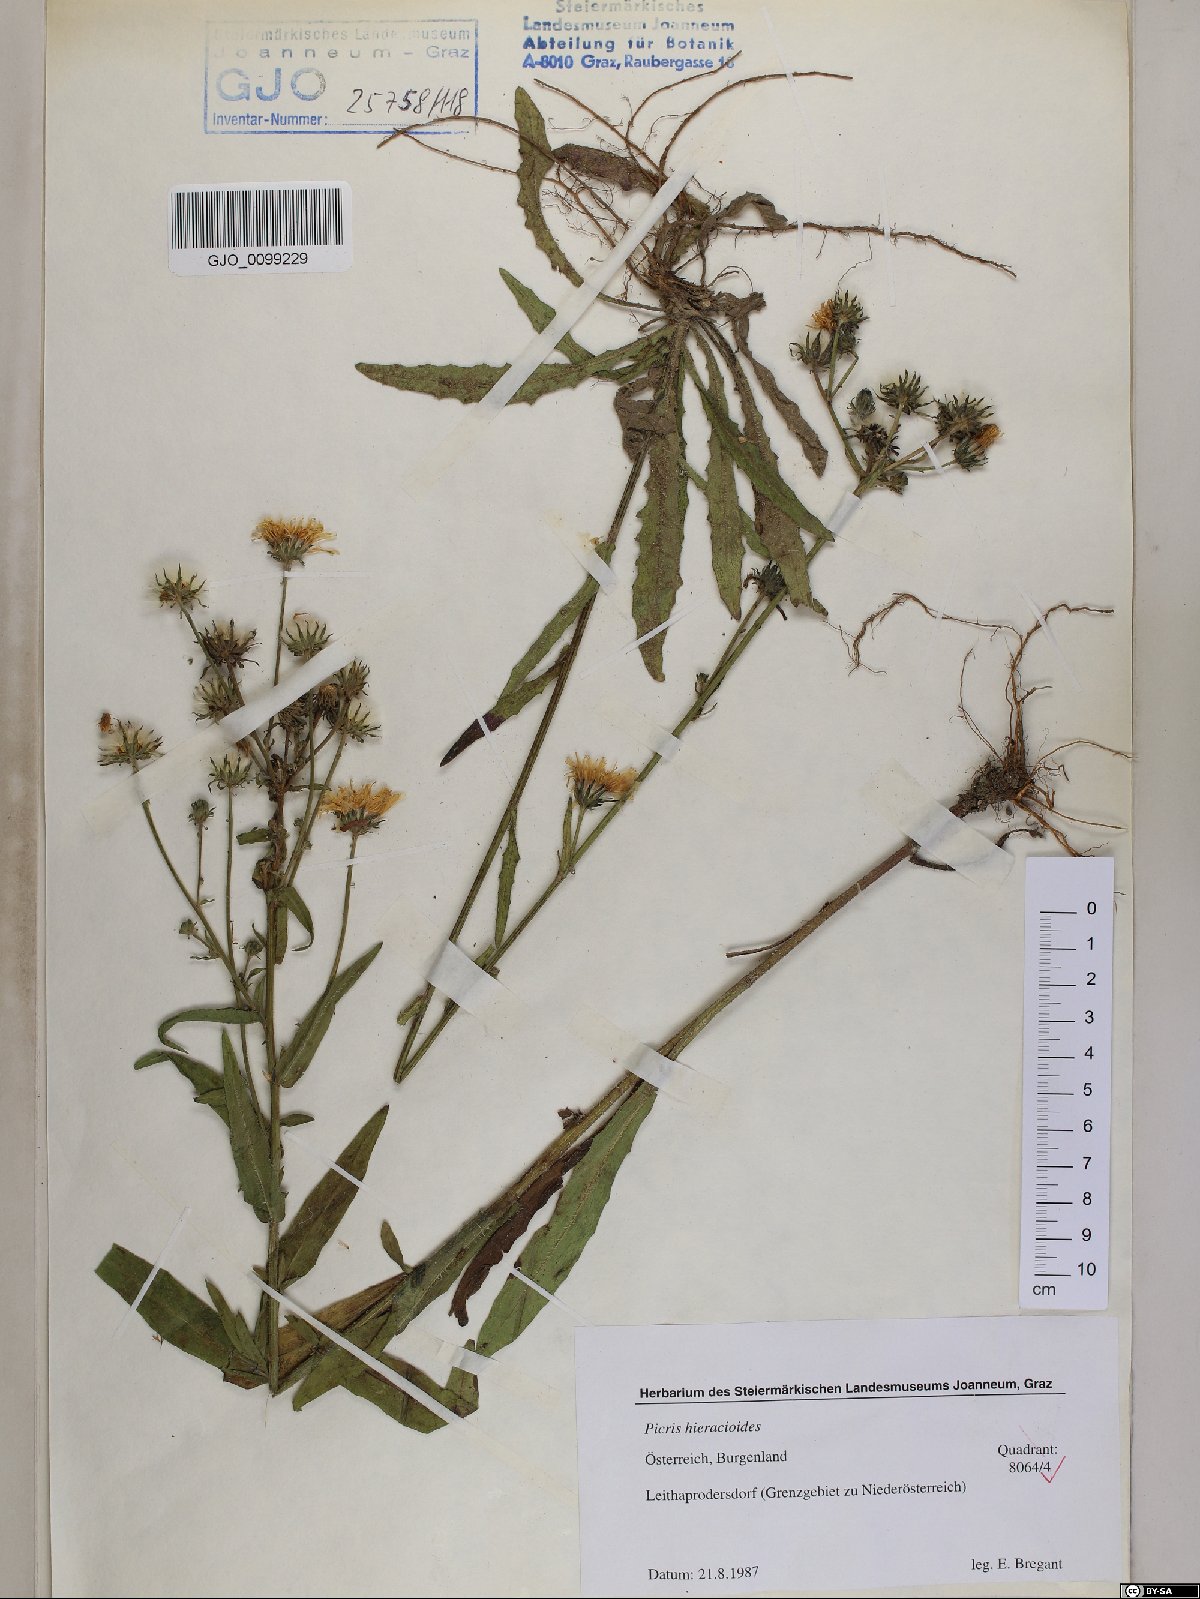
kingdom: Plantae
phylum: Tracheophyta
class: Magnoliopsida
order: Asterales
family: Asteraceae
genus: Picris
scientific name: Picris hieracioides
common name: Hawkweed oxtongue
